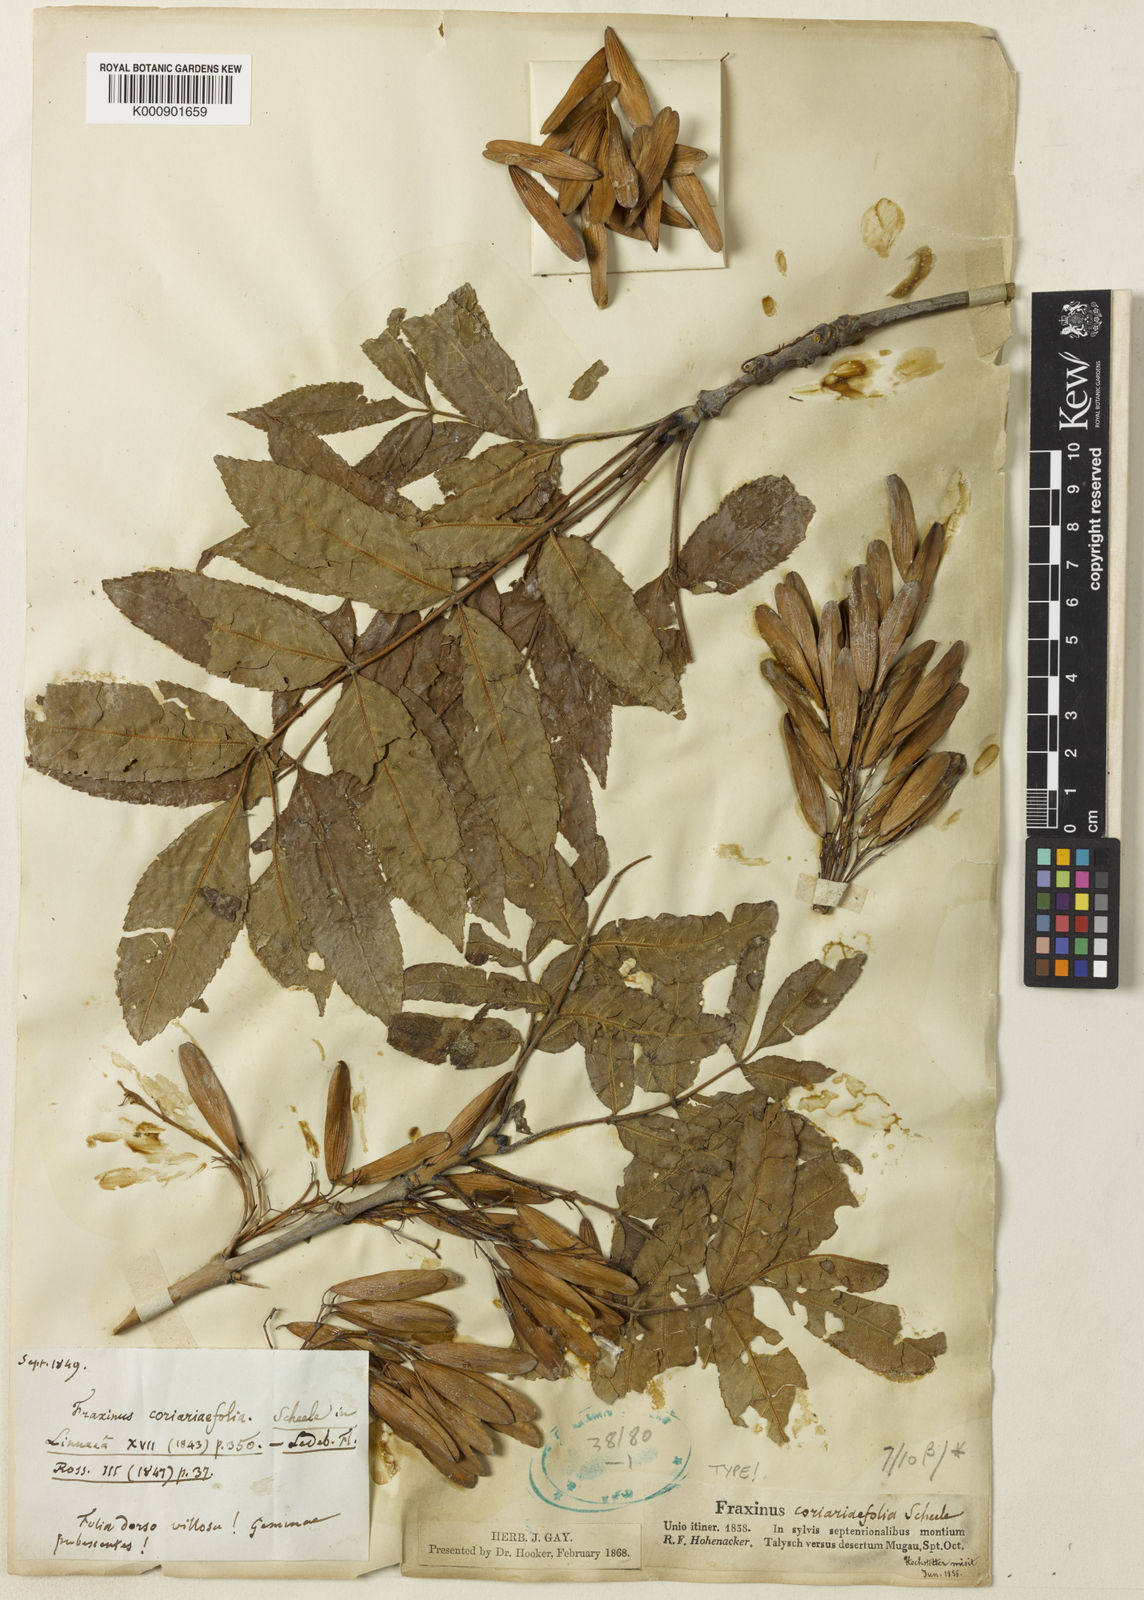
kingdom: Plantae
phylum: Tracheophyta
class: Magnoliopsida
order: Lamiales
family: Oleaceae
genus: Fraxinus
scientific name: Fraxinus excelsior
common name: European ash
